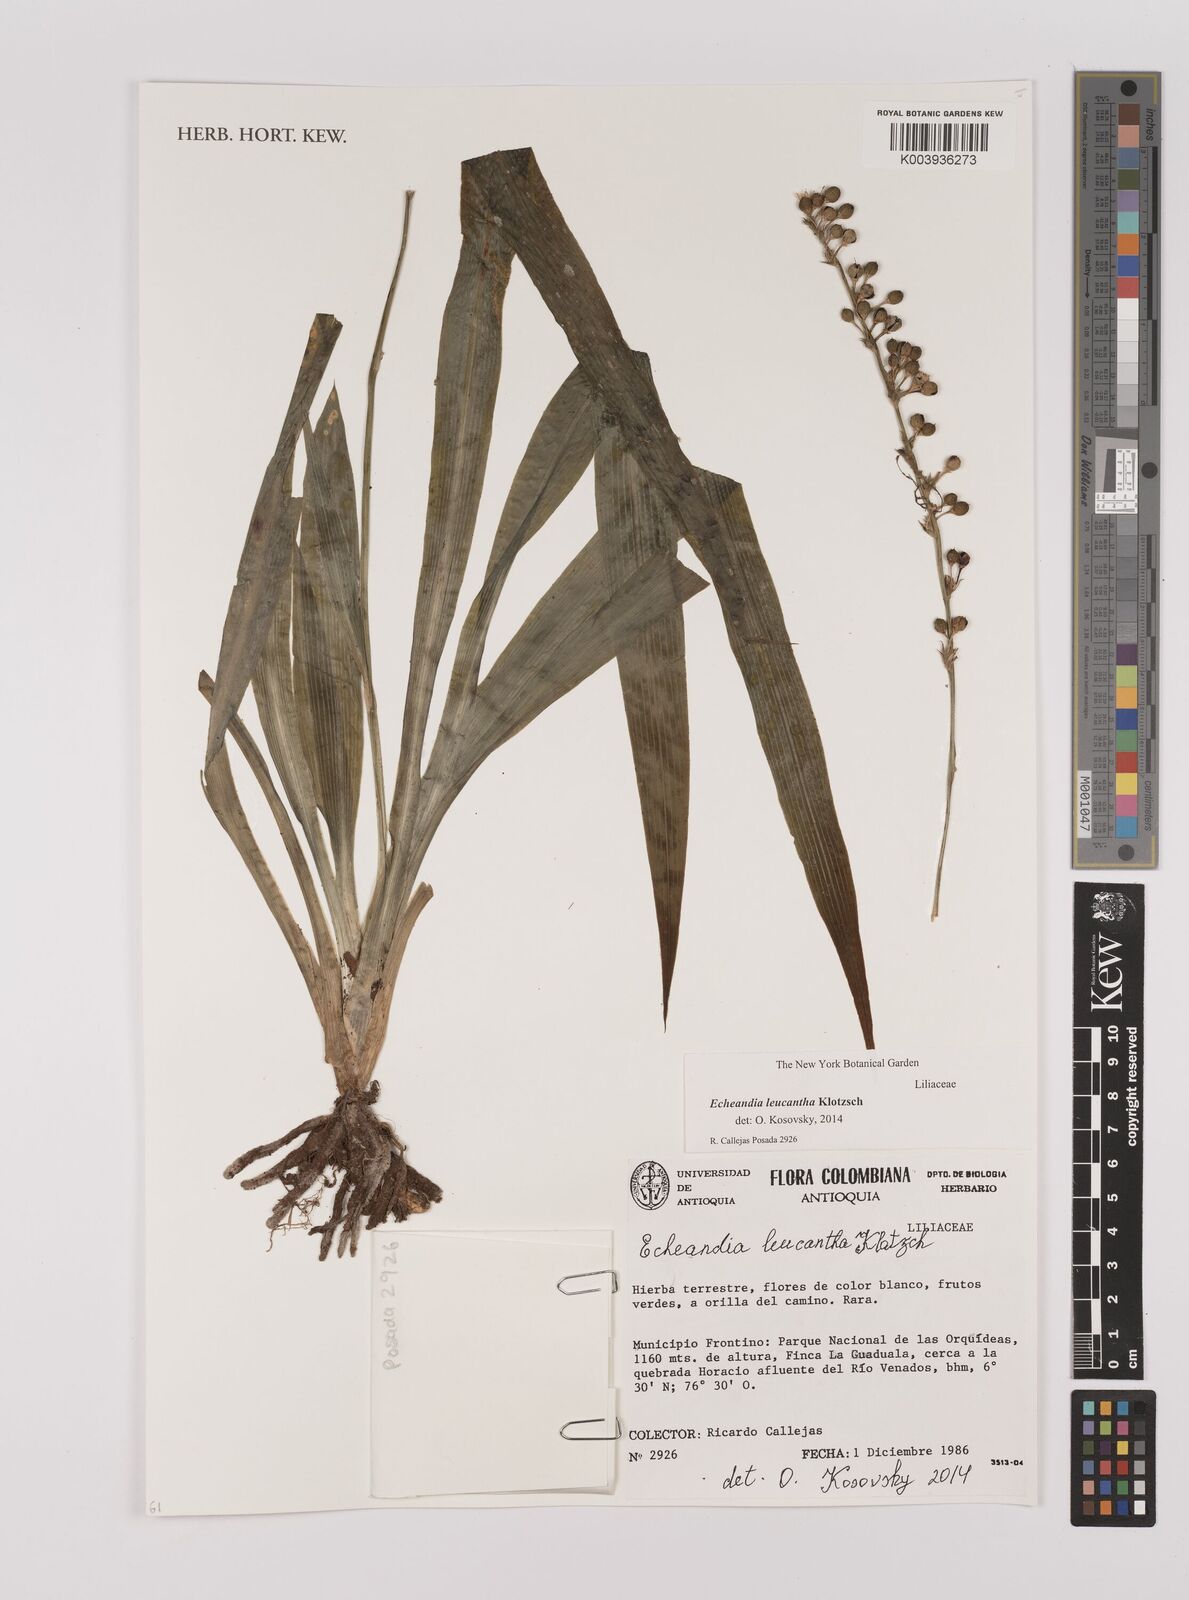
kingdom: Plantae
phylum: Tracheophyta
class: Liliopsida
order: Asparagales
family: Asparagaceae
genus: Echeandia
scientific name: Echeandia leucantha
